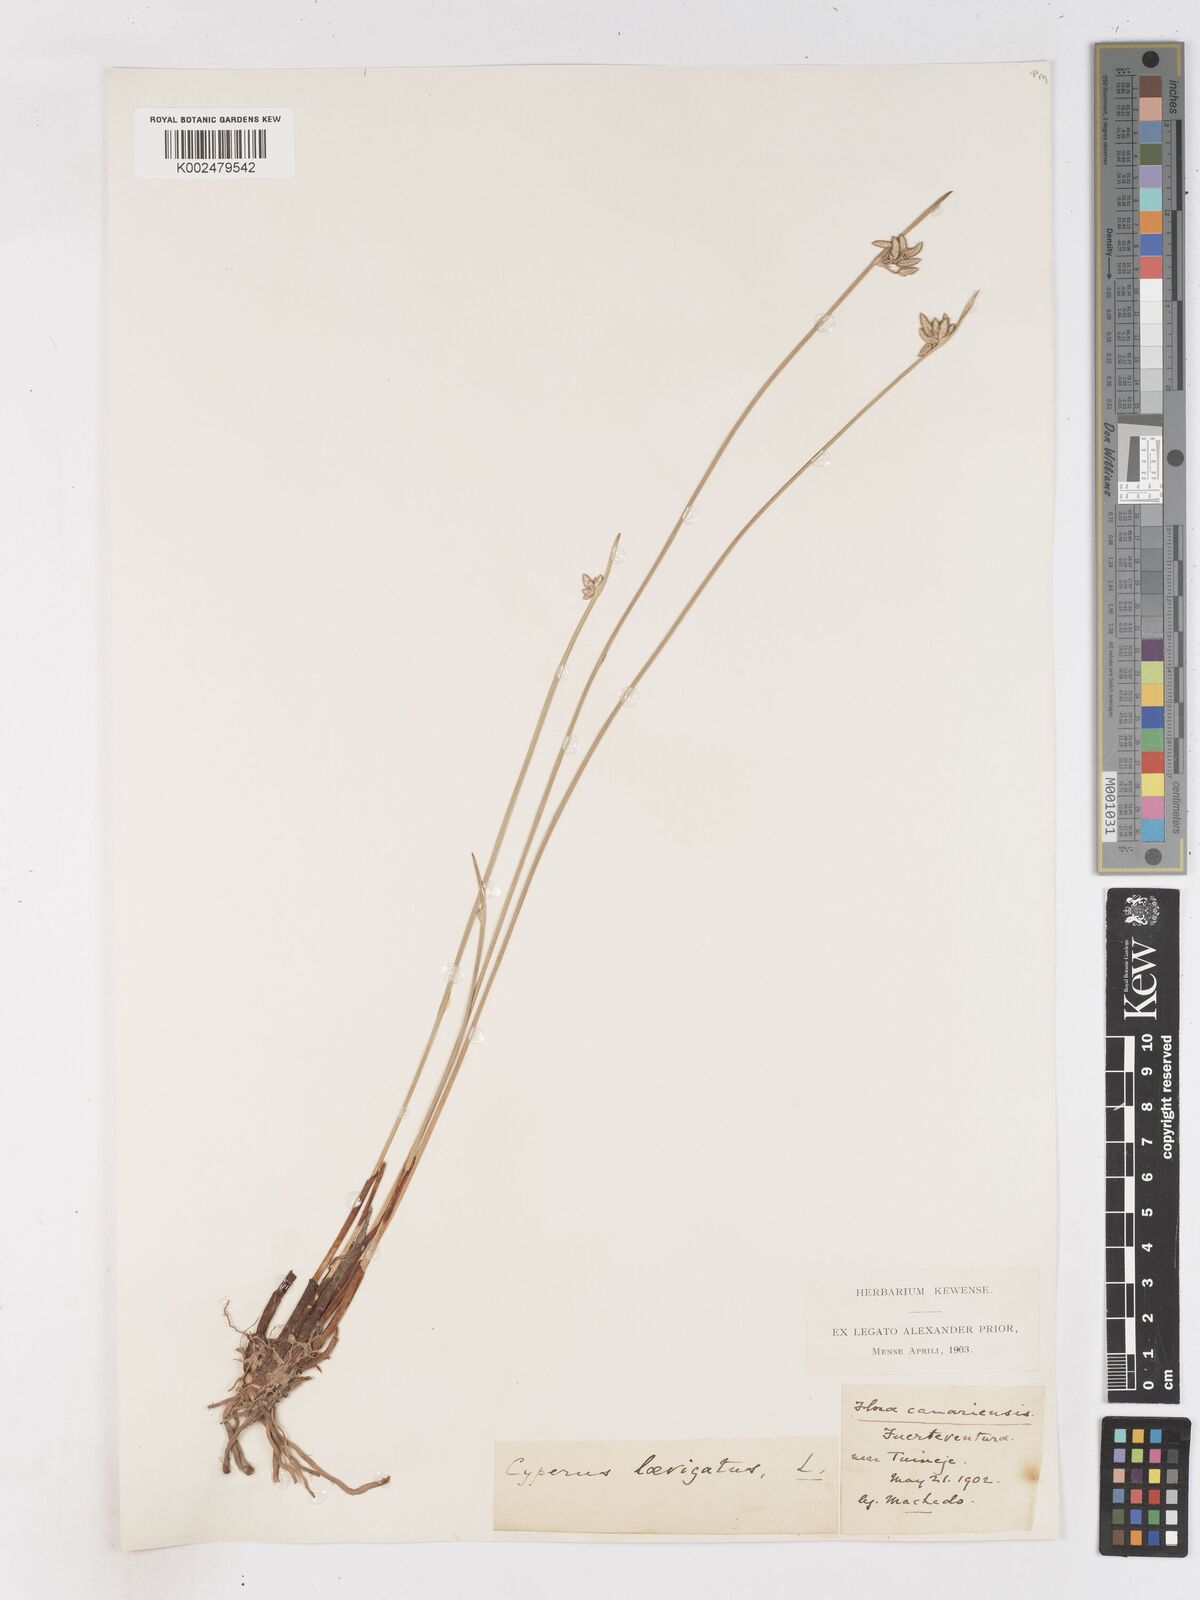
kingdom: Plantae
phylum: Tracheophyta
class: Liliopsida
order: Poales
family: Cyperaceae
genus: Cyperus
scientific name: Cyperus laevigatus
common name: Smooth flat sedge
